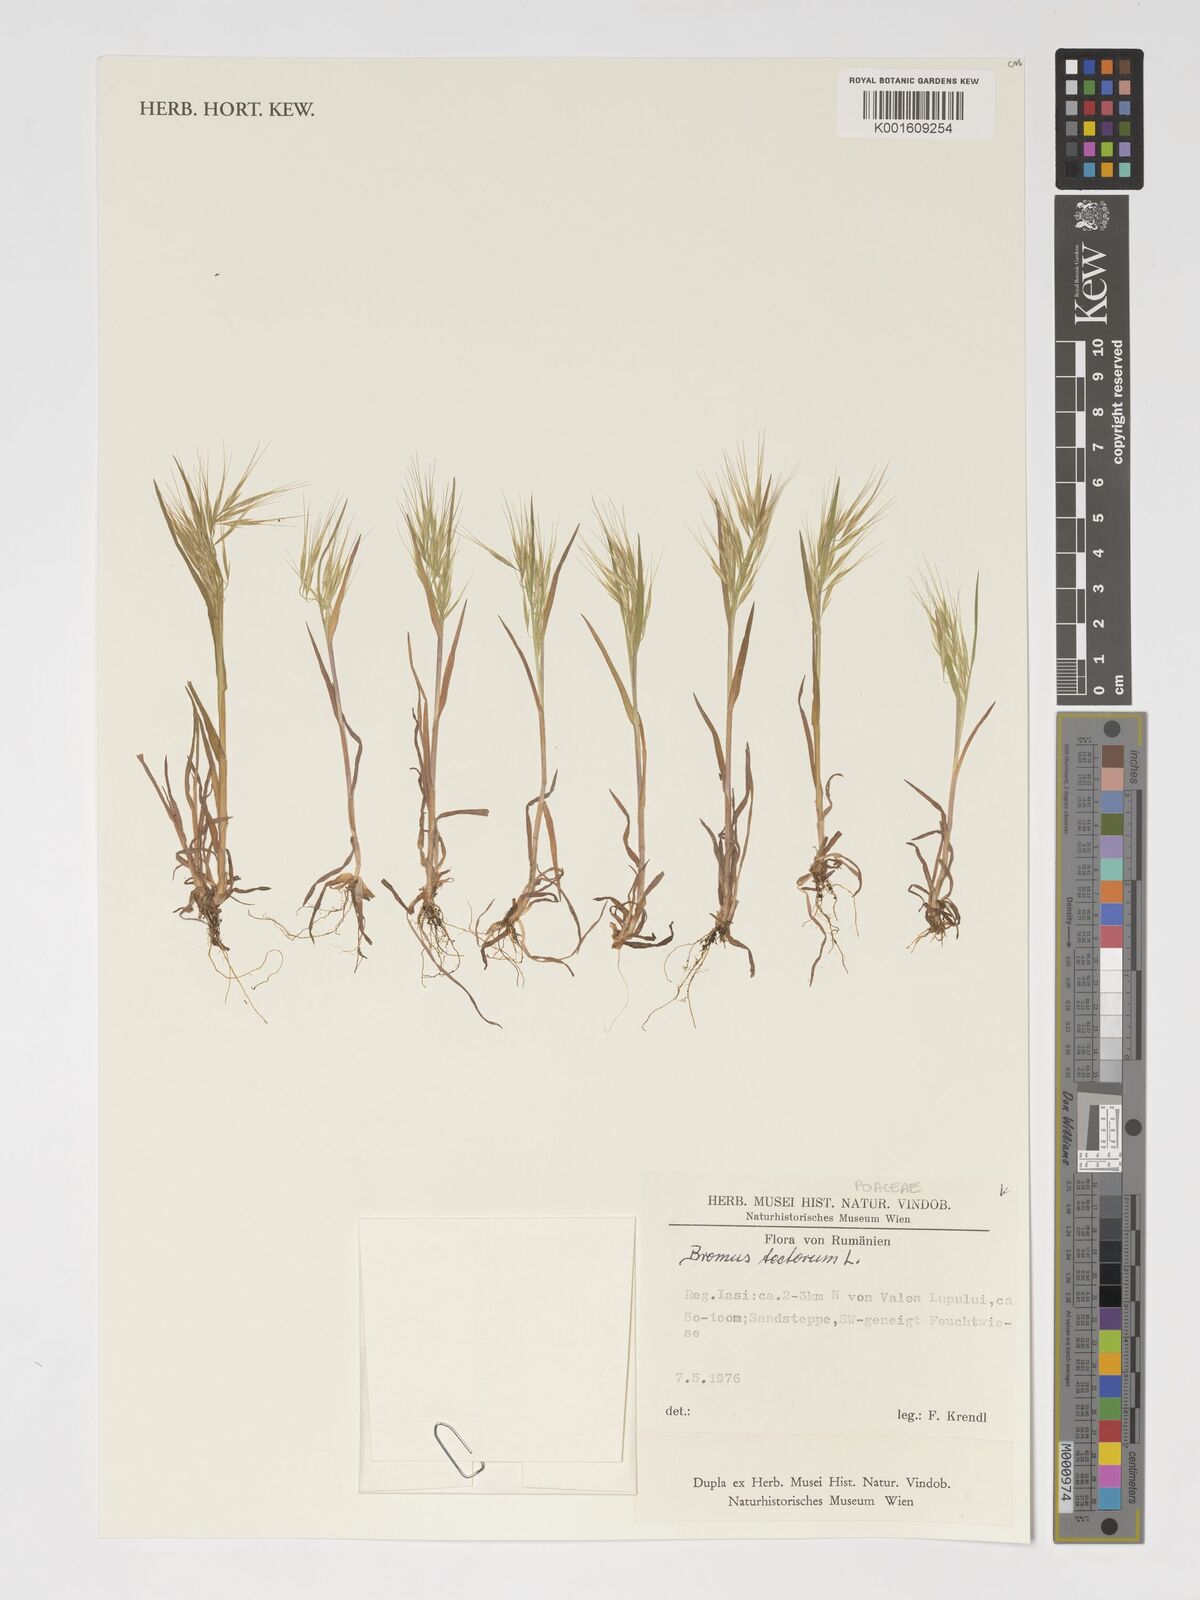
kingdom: Plantae
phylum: Tracheophyta
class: Liliopsida
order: Poales
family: Poaceae
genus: Bromus
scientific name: Bromus tectorum
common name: Cheatgrass
